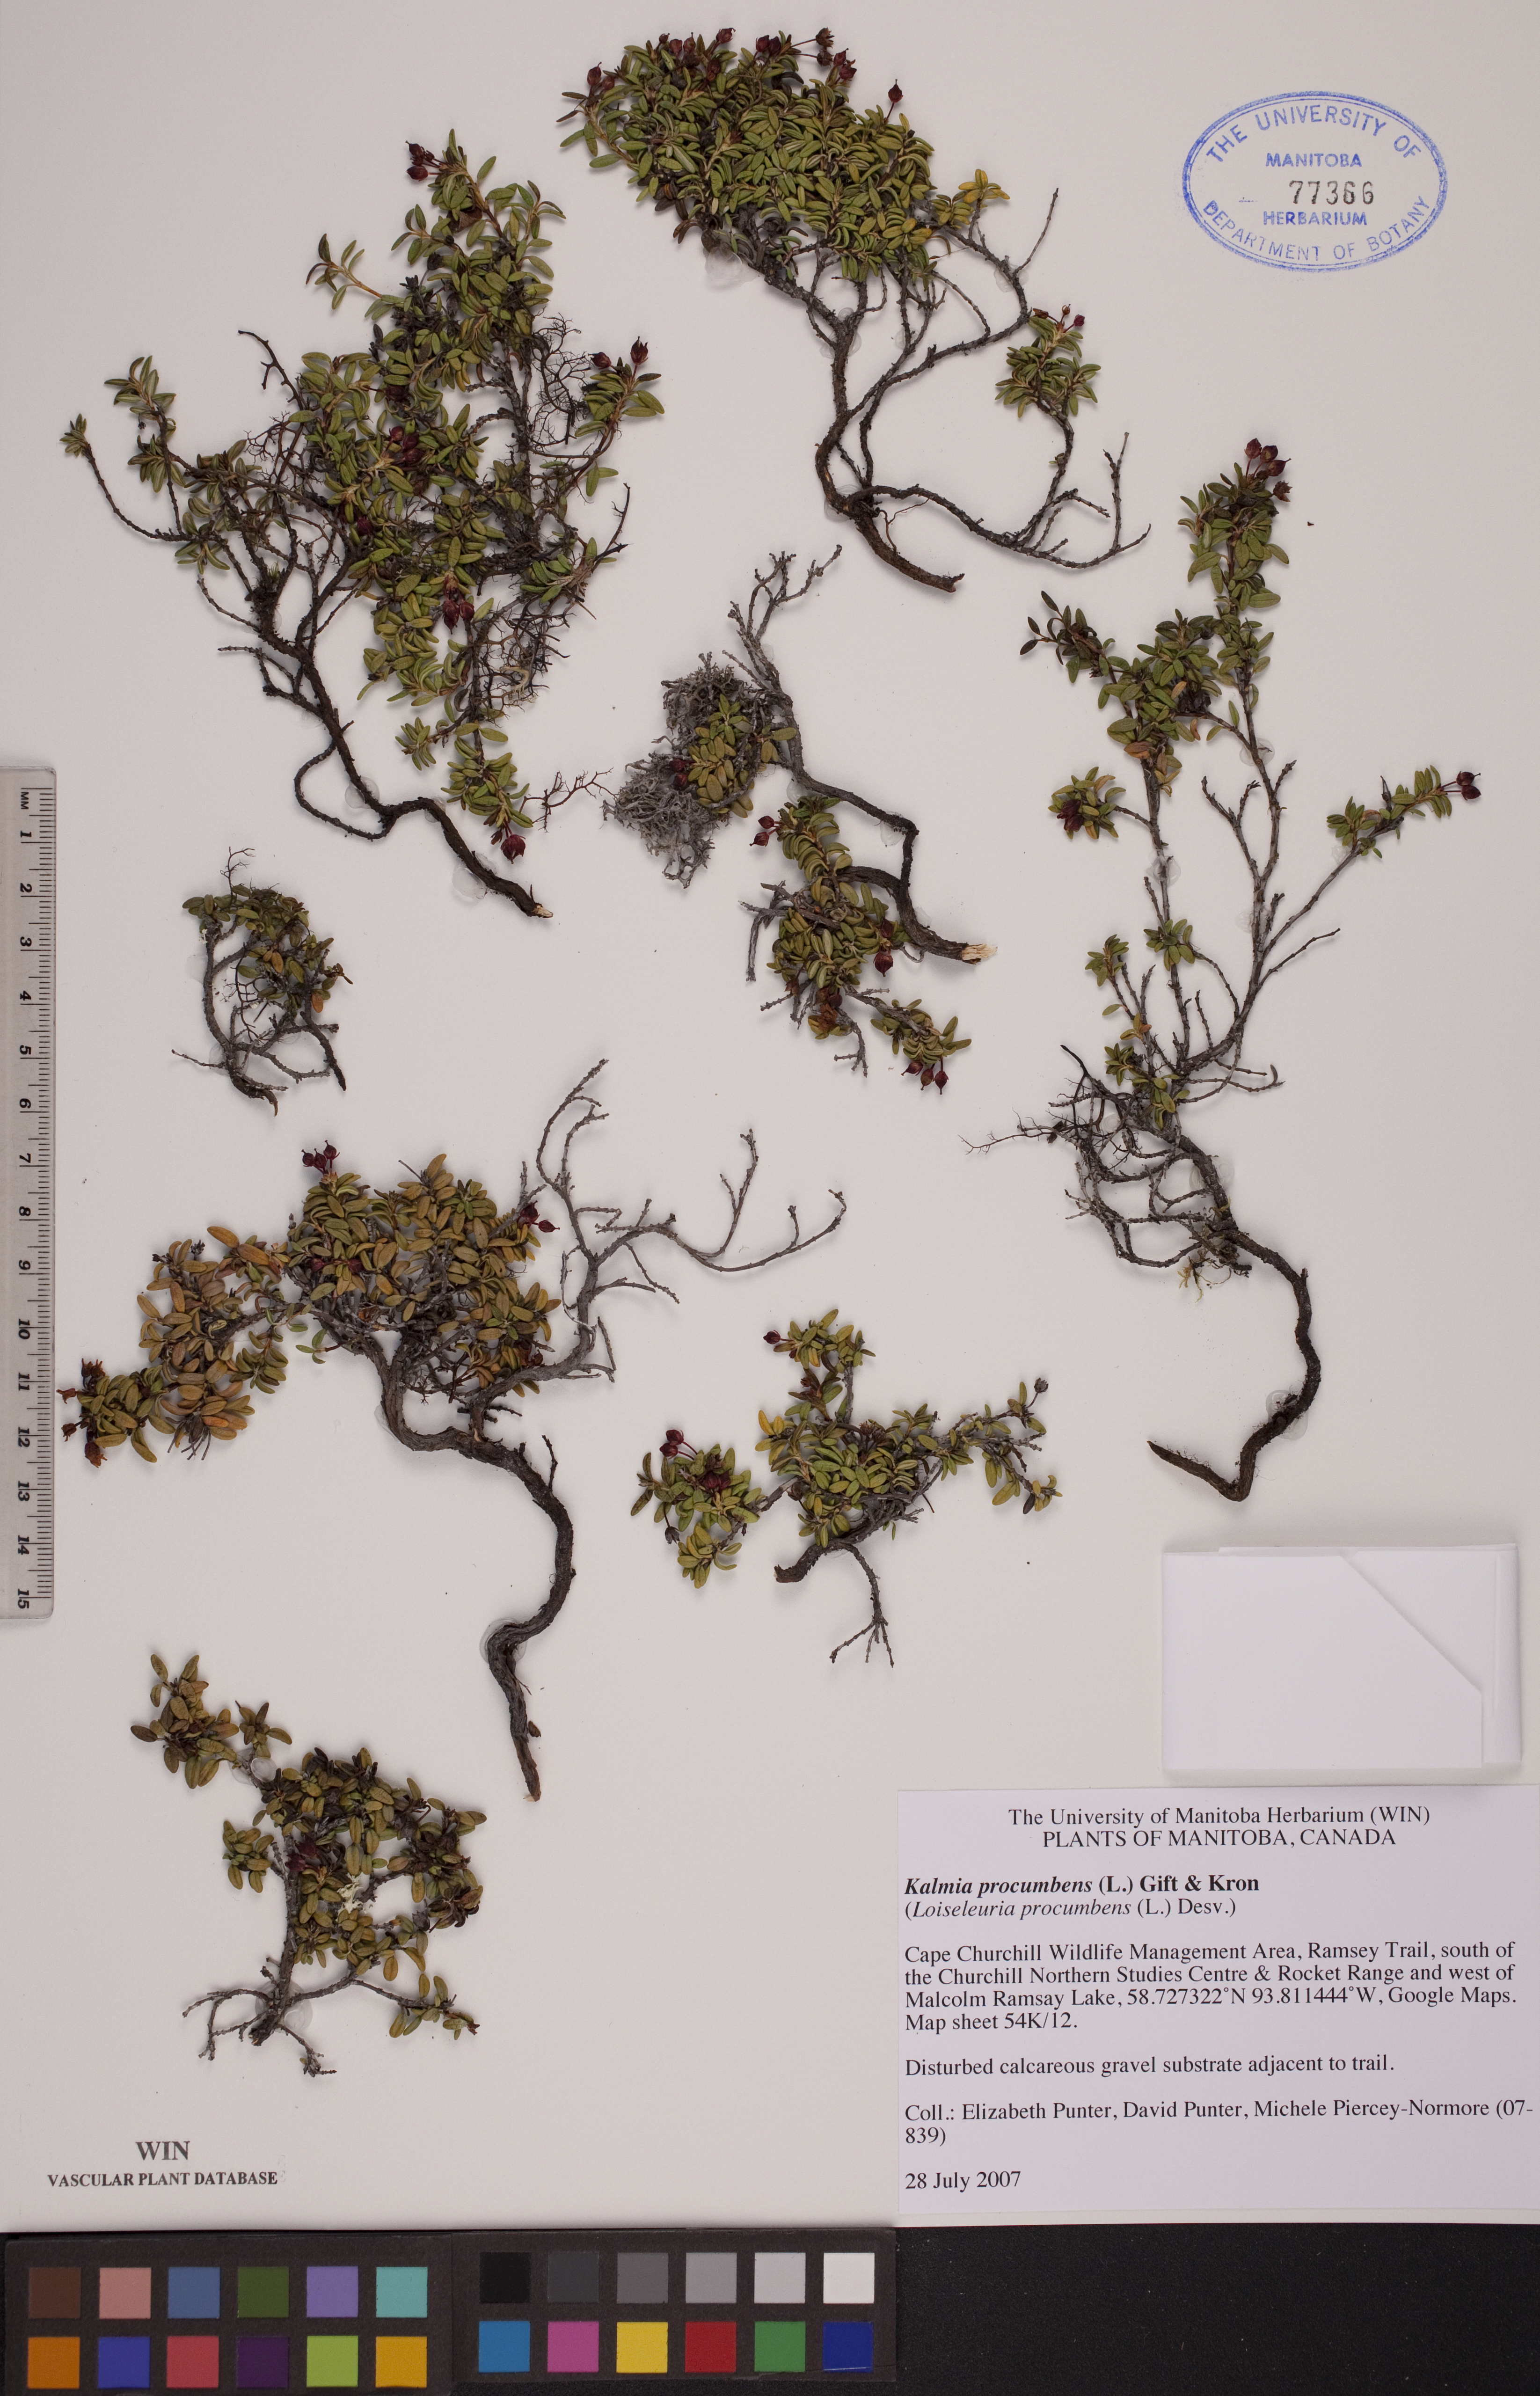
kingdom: Plantae
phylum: Tracheophyta
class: Magnoliopsida
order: Ericales
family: Ericaceae
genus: Kalmia
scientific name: Kalmia procumbens
